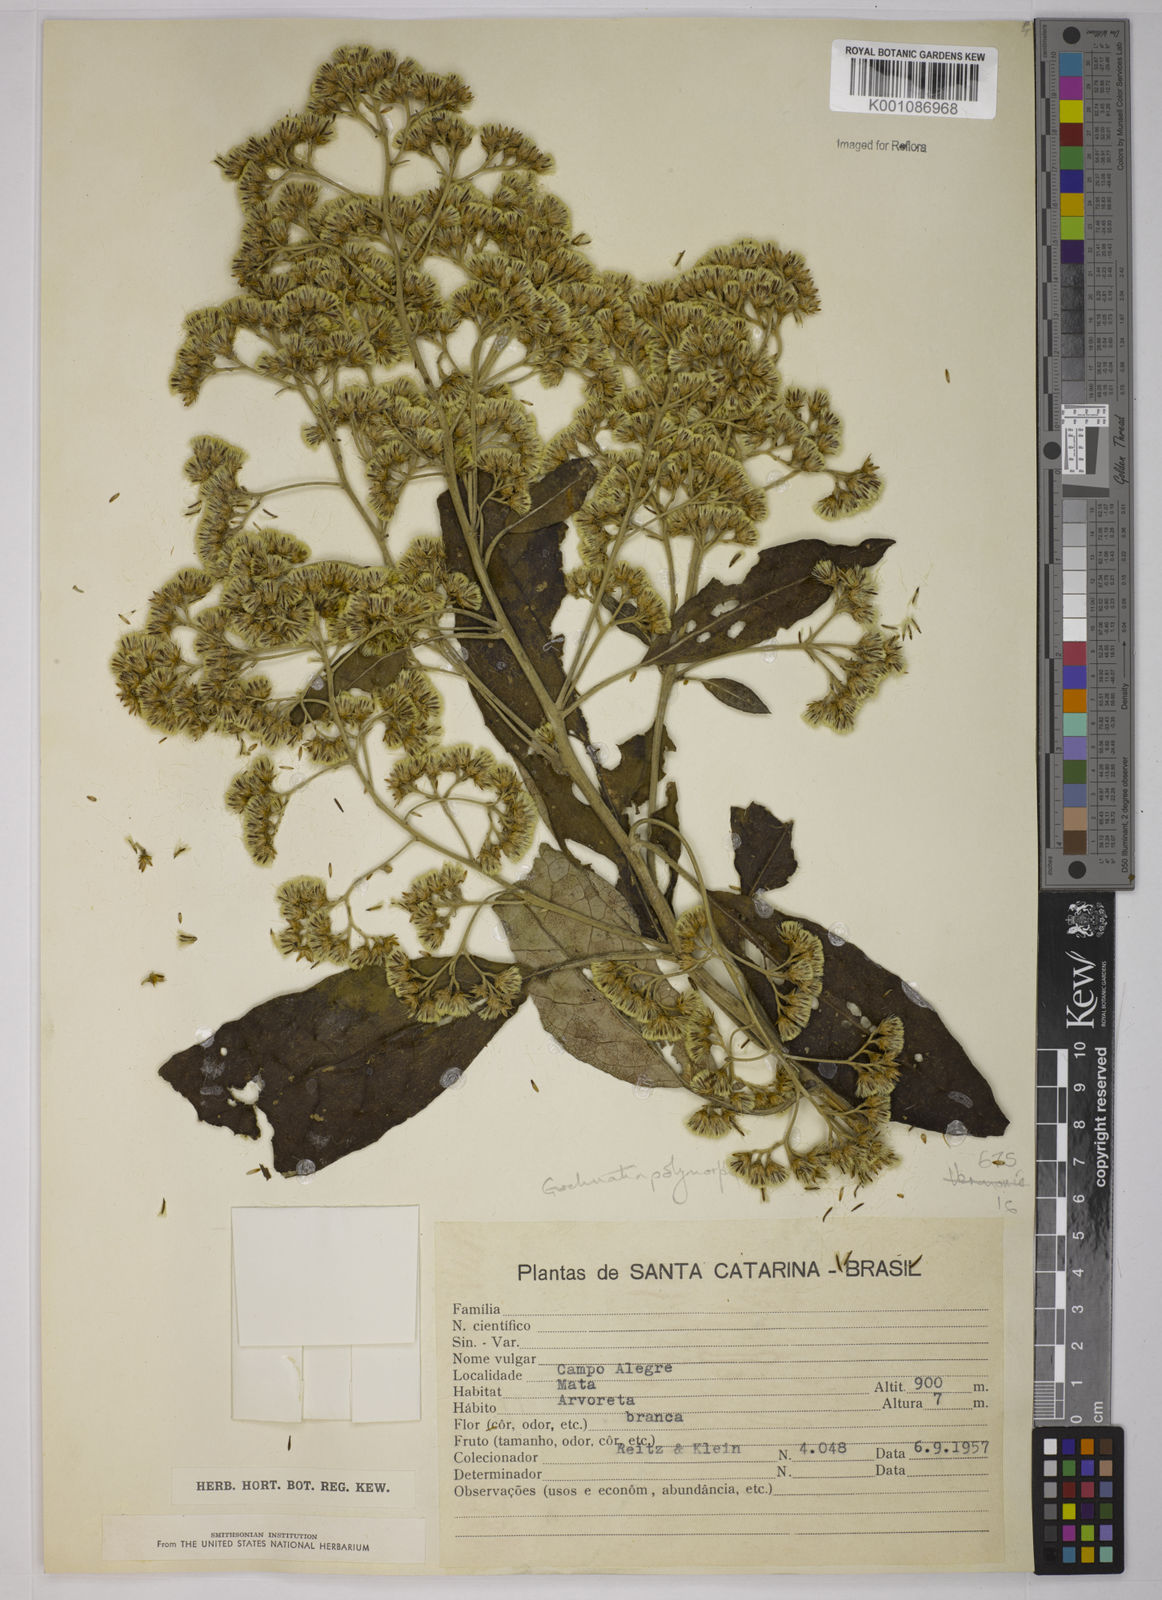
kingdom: Plantae
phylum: Tracheophyta
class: Magnoliopsida
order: Asterales
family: Asteraceae
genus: Moquiniastrum
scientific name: Moquiniastrum polymorphum
